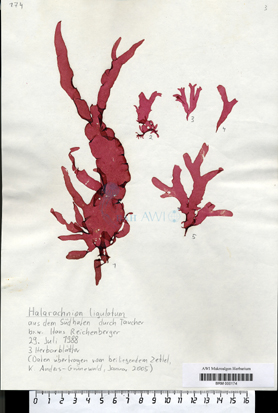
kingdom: Plantae
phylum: Rhodophyta
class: Florideophyceae
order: Gigartinales
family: Furcellariaceae
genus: Halarachnion
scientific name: Halarachnion ligulatum
